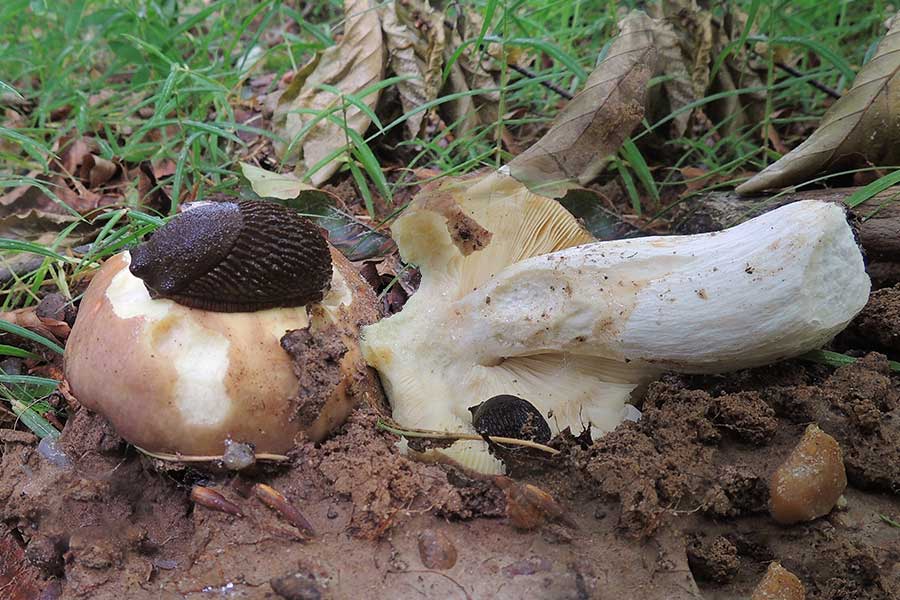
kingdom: Fungi
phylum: Basidiomycota
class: Agaricomycetes
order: Russulales
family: Russulaceae
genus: Russula
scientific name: Russula romellii
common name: romells skørhat
